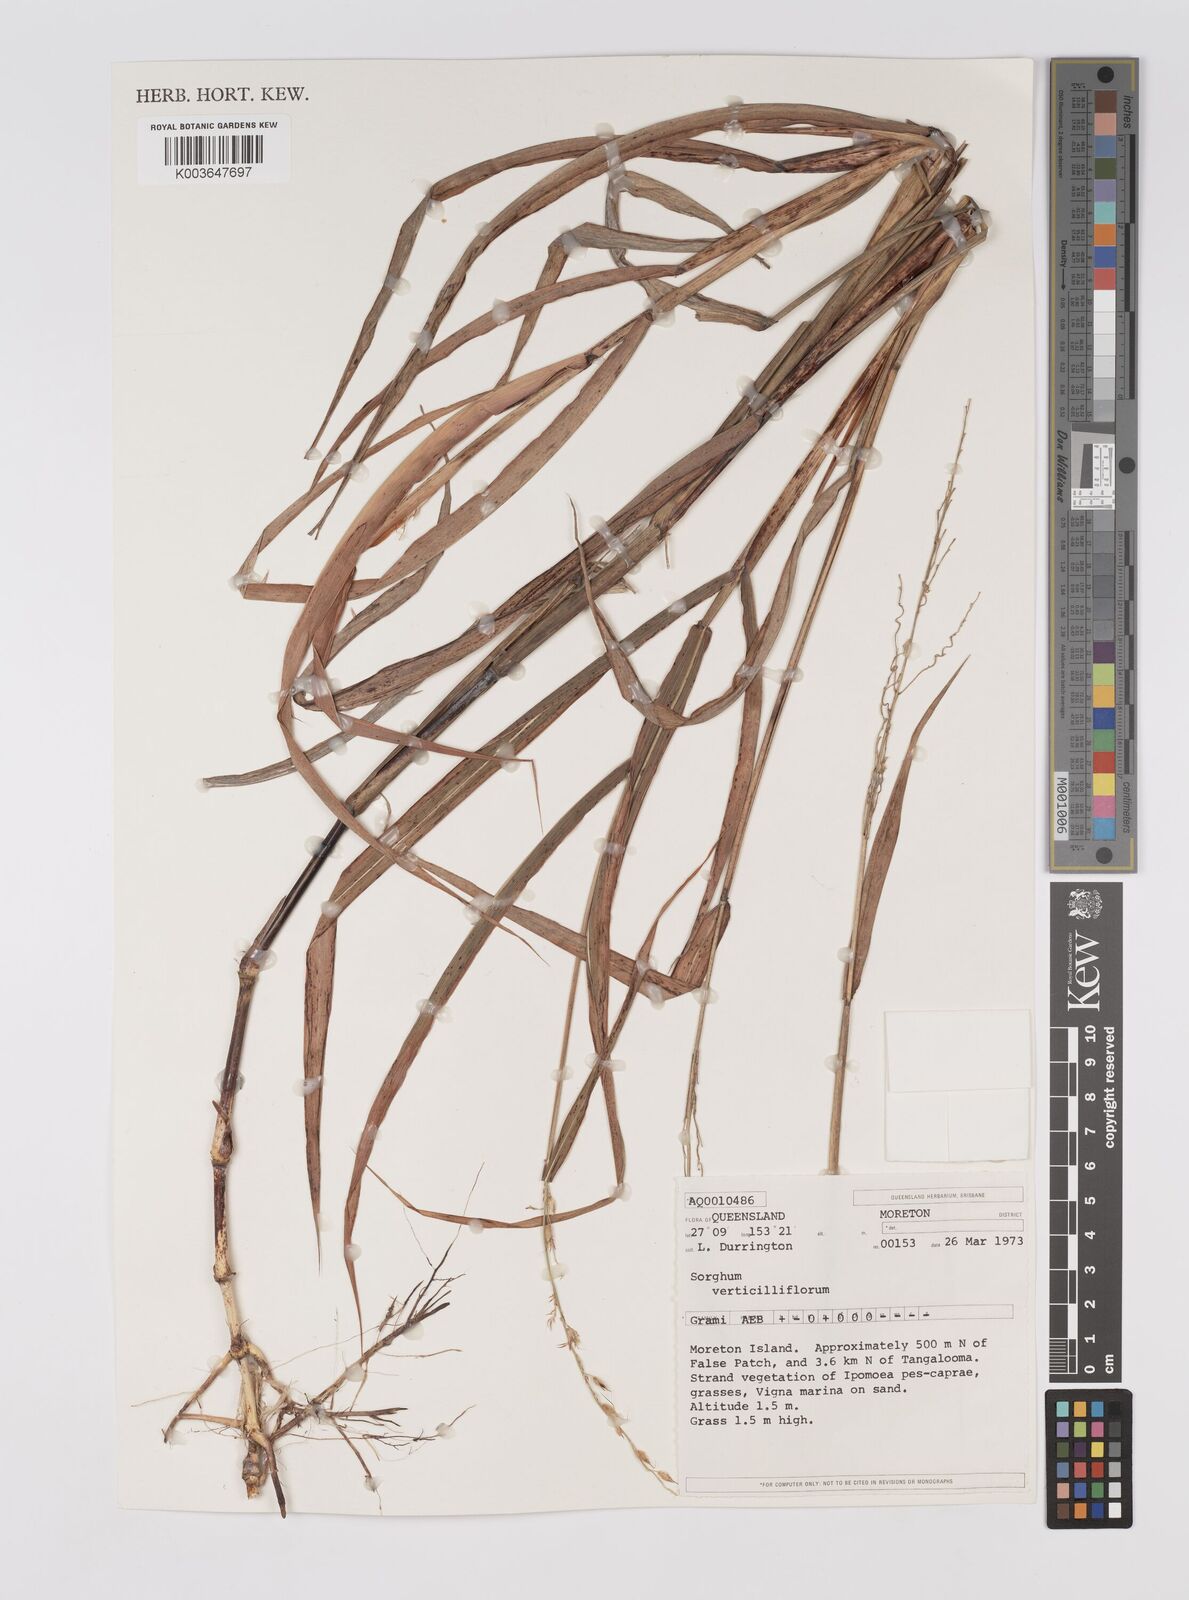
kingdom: Plantae
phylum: Tracheophyta
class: Liliopsida
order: Poales
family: Poaceae
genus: Sorghum
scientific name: Sorghum arundinaceum
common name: Sorghum
